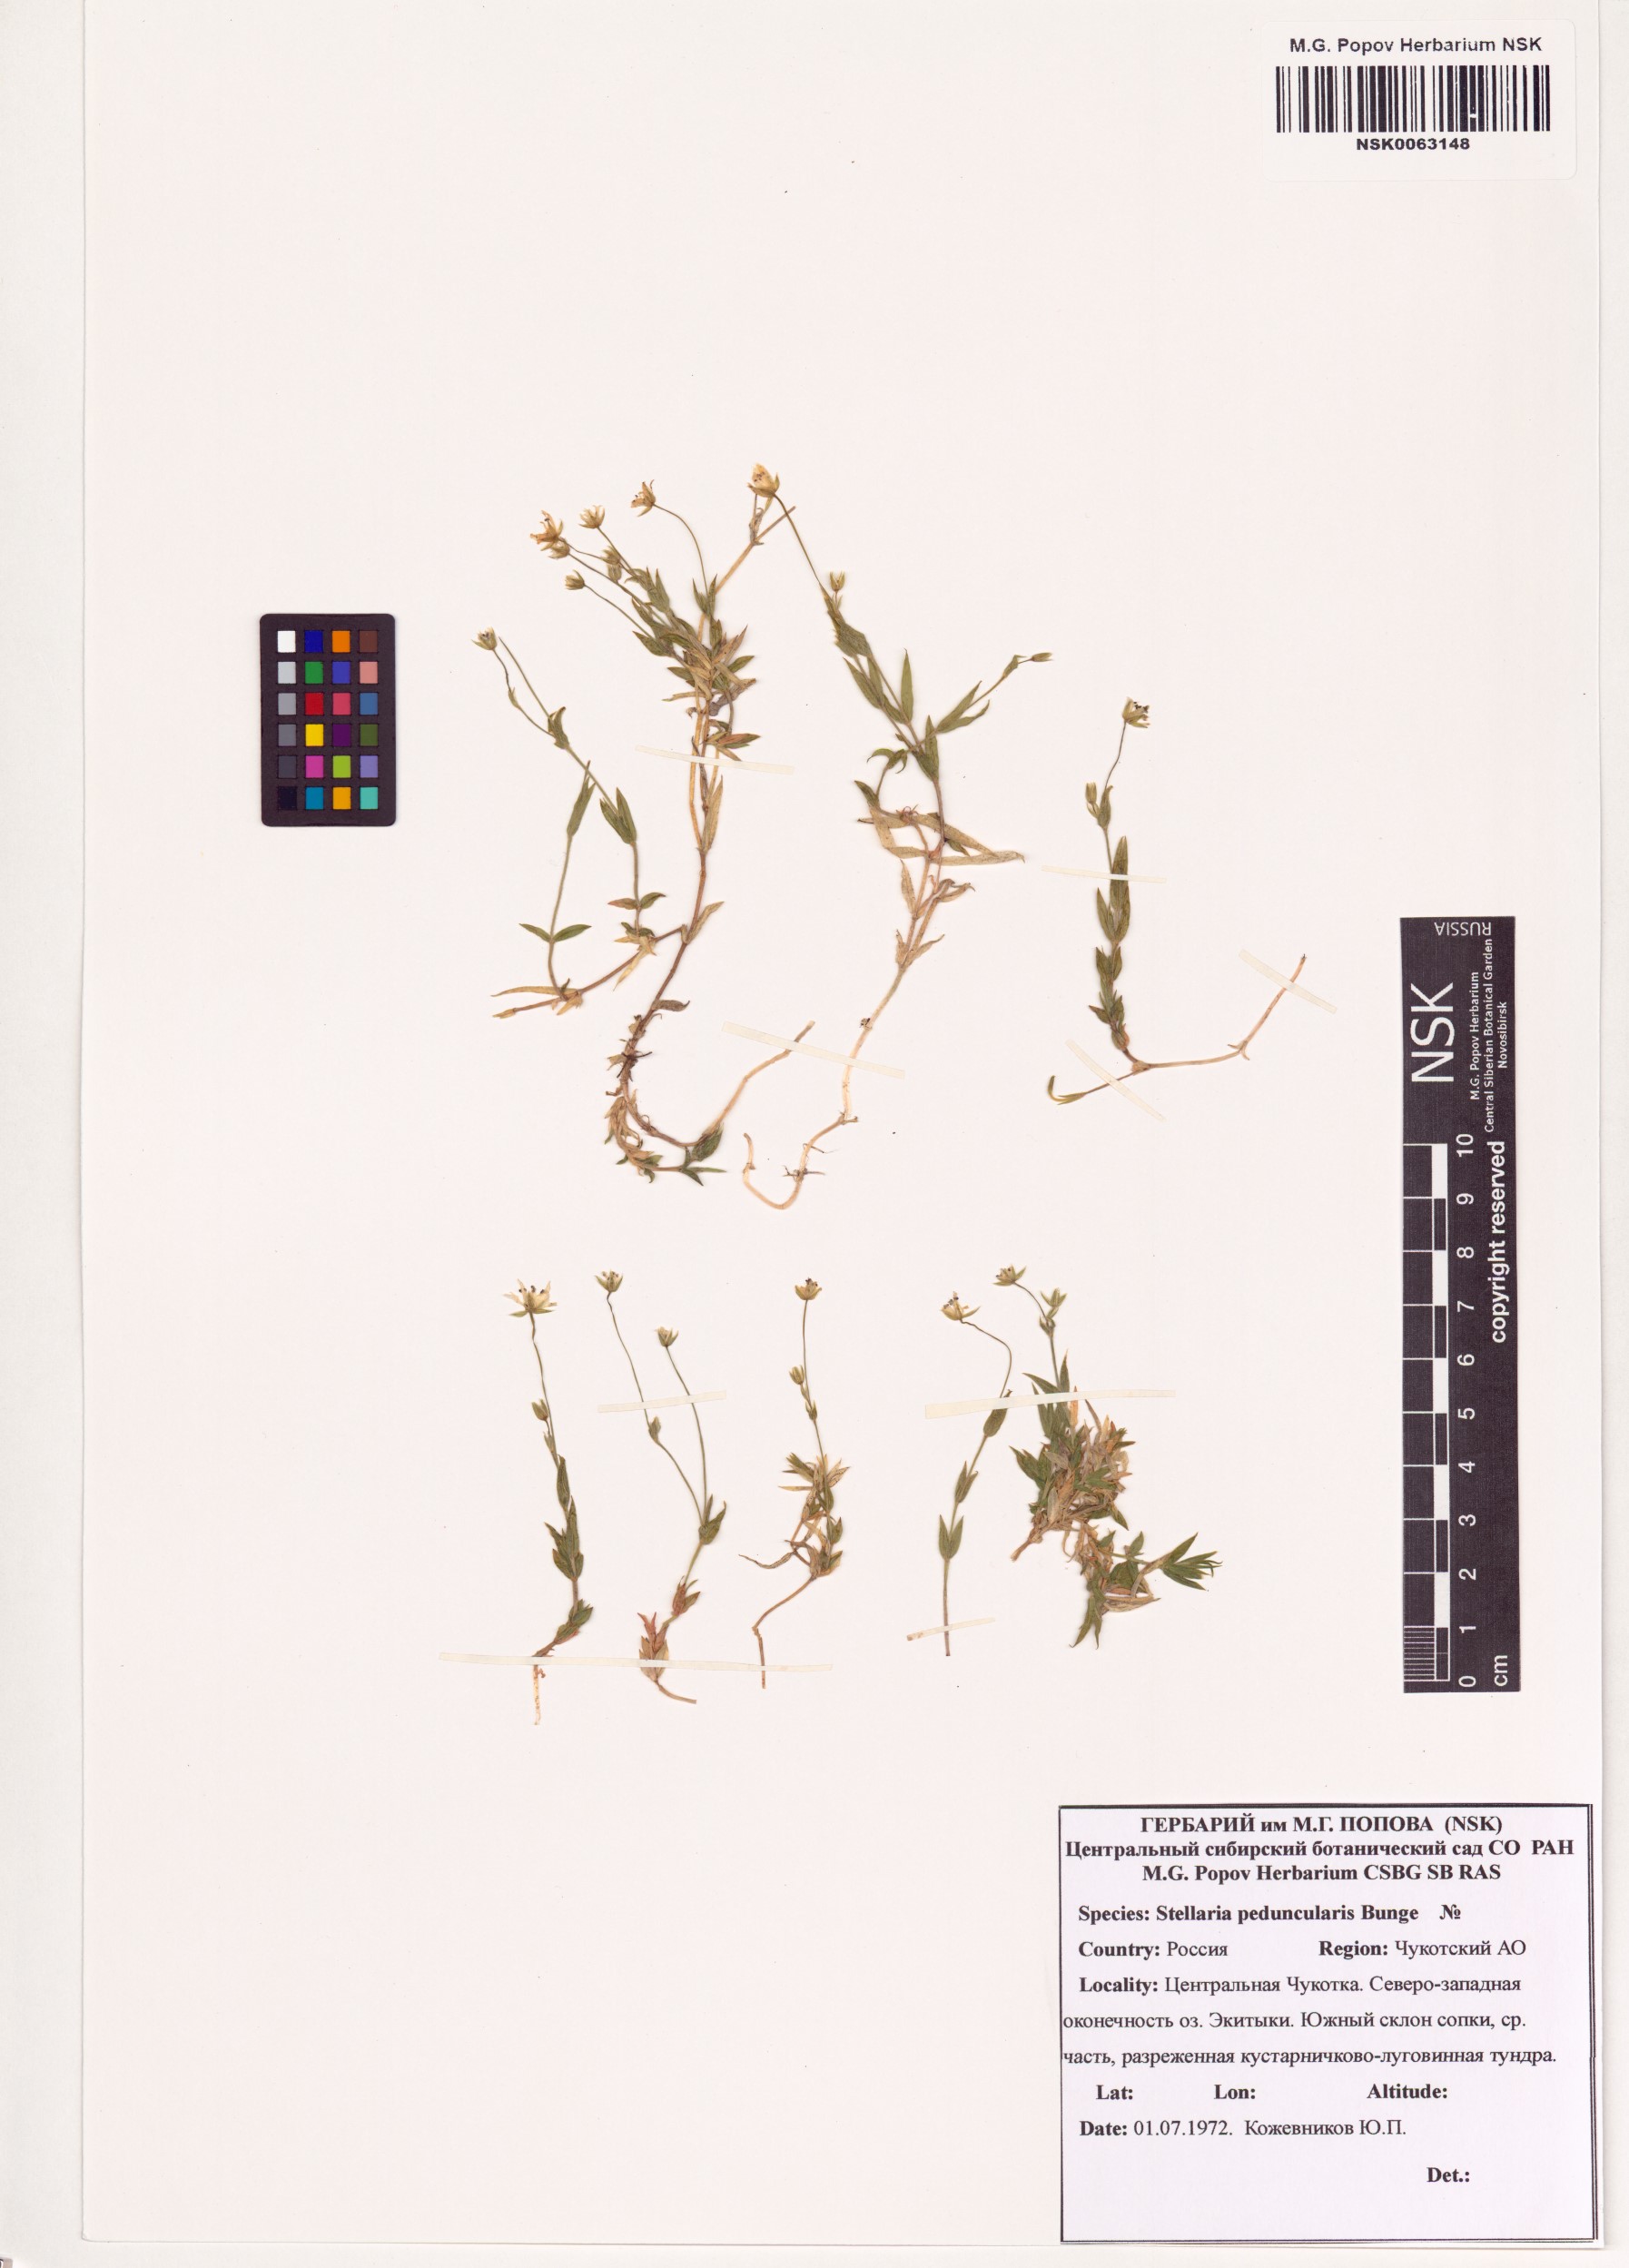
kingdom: Plantae
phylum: Tracheophyta
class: Magnoliopsida
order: Caryophyllales
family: Caryophyllaceae
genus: Stellaria
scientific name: Stellaria peduncularis
